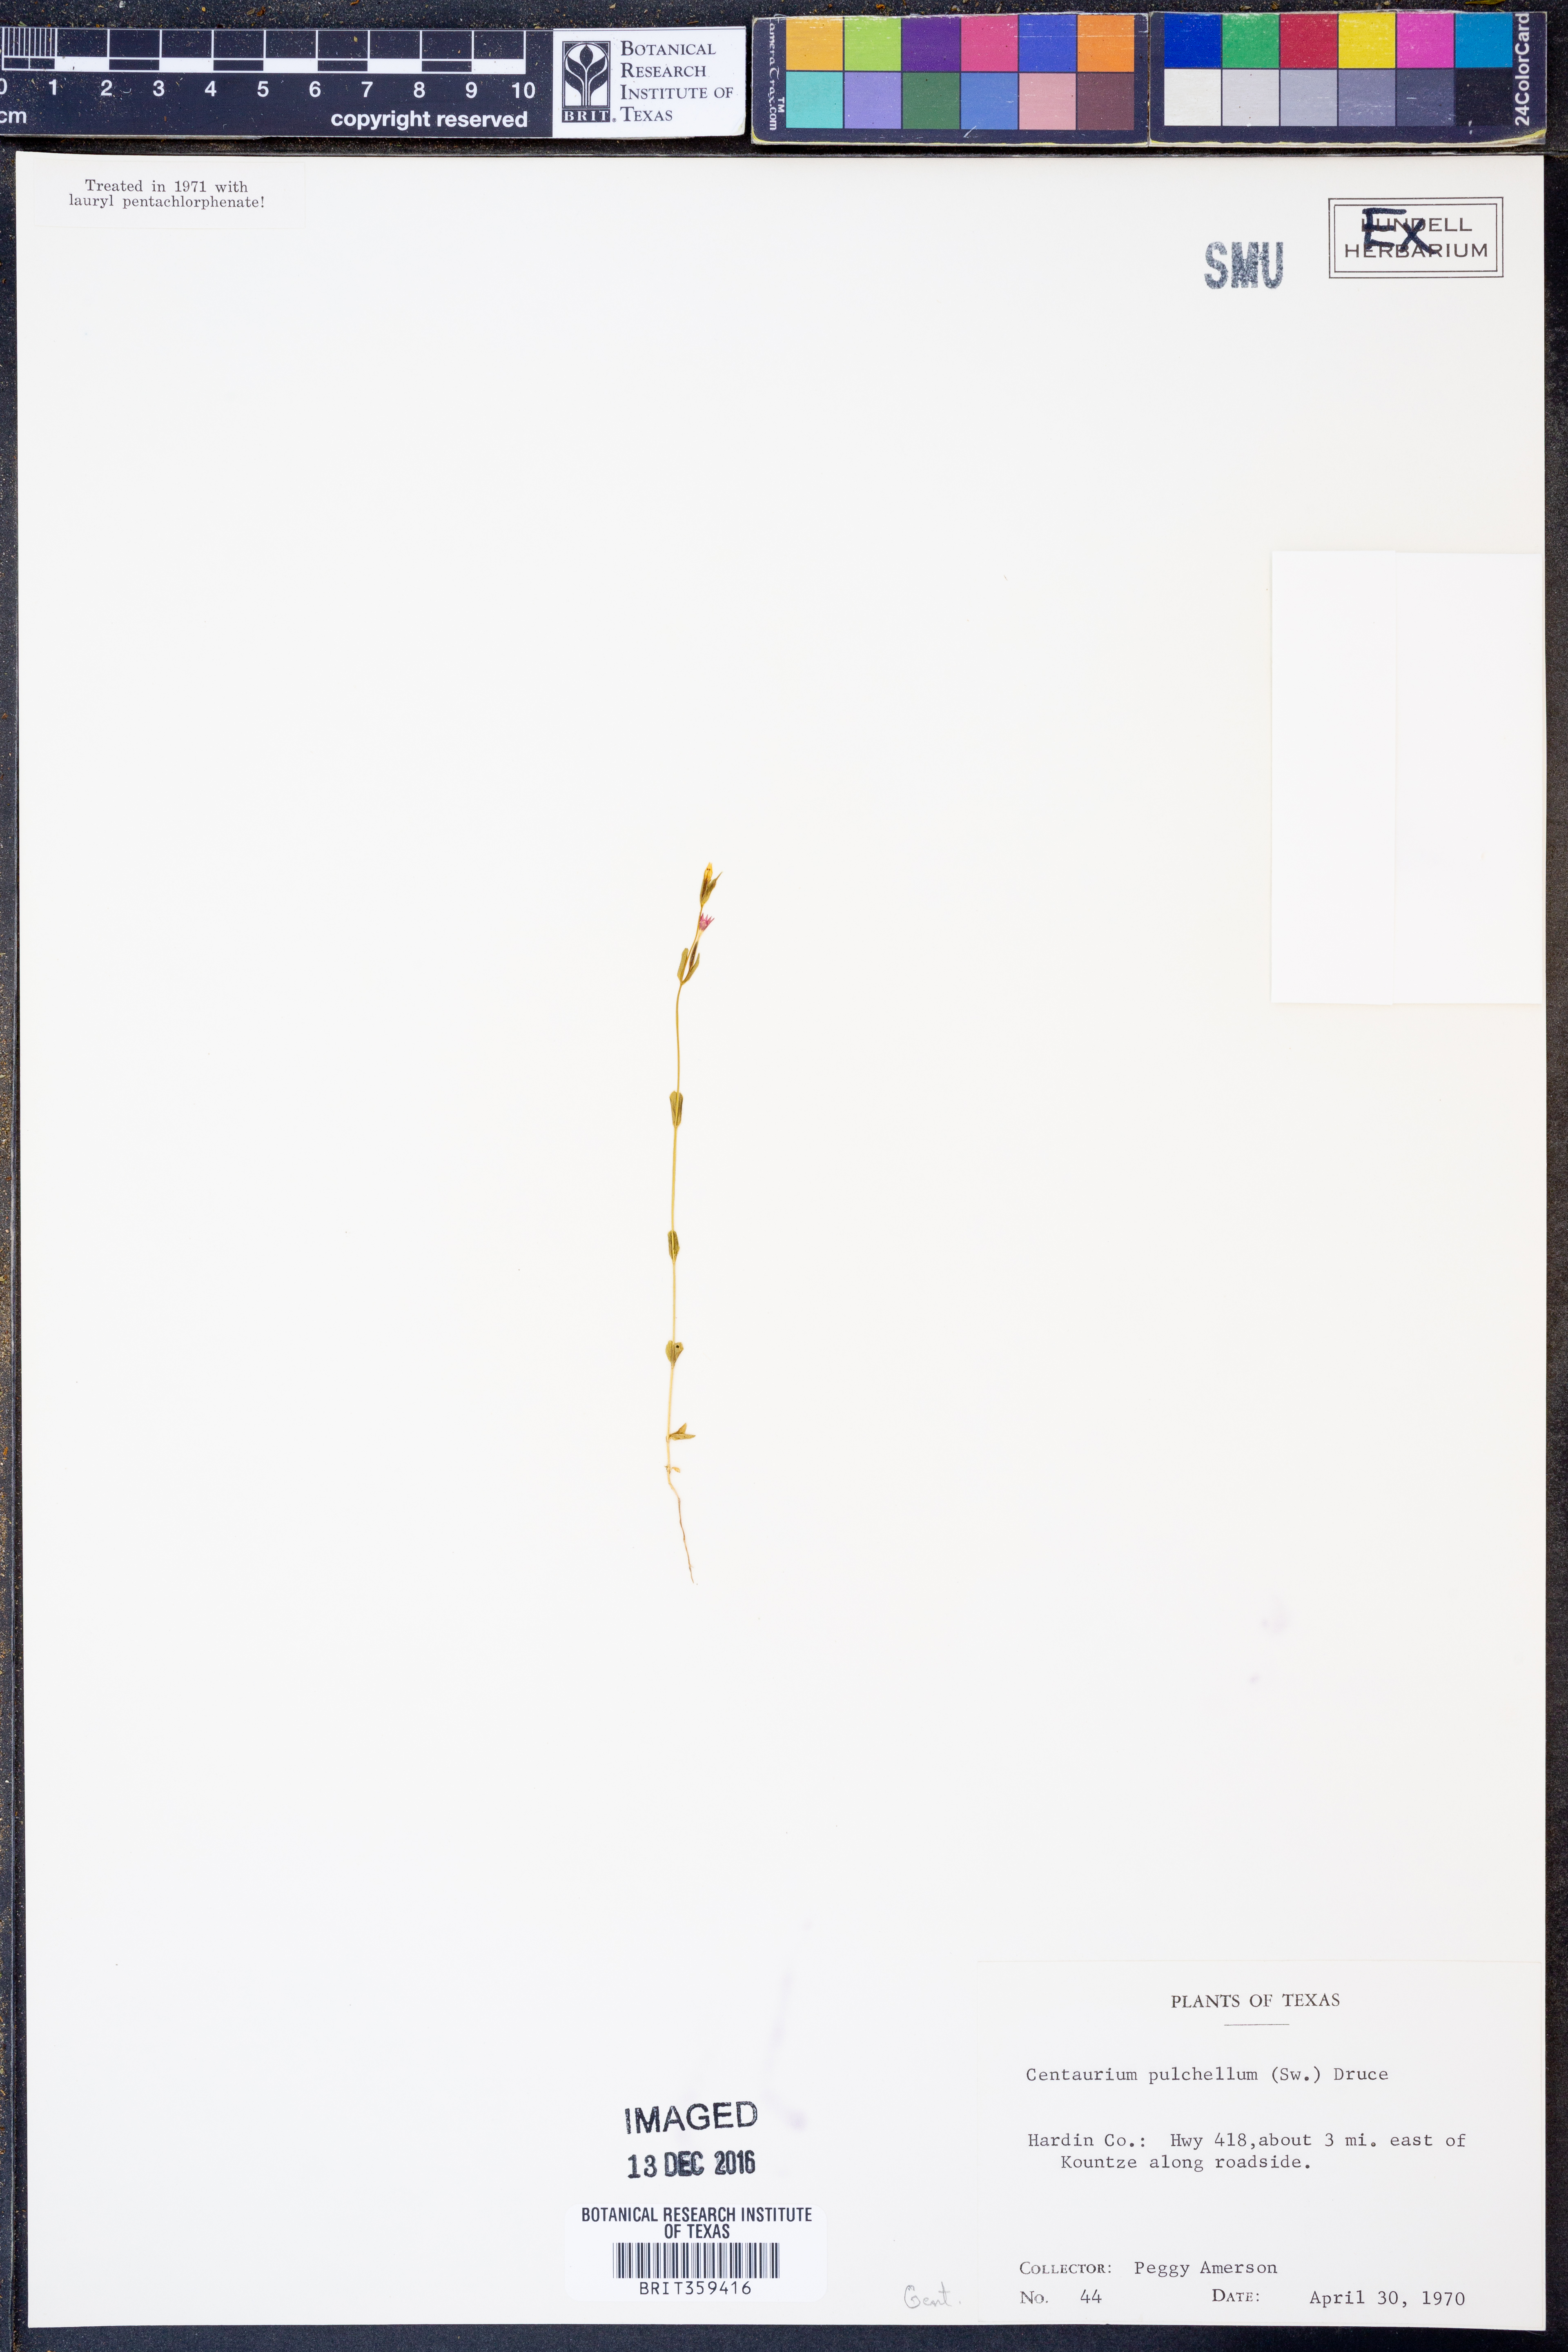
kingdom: Plantae
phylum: Tracheophyta
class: Magnoliopsida
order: Gentianales
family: Gentianaceae
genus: Centaurium
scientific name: Centaurium pulchellum
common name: Lesser centaury
